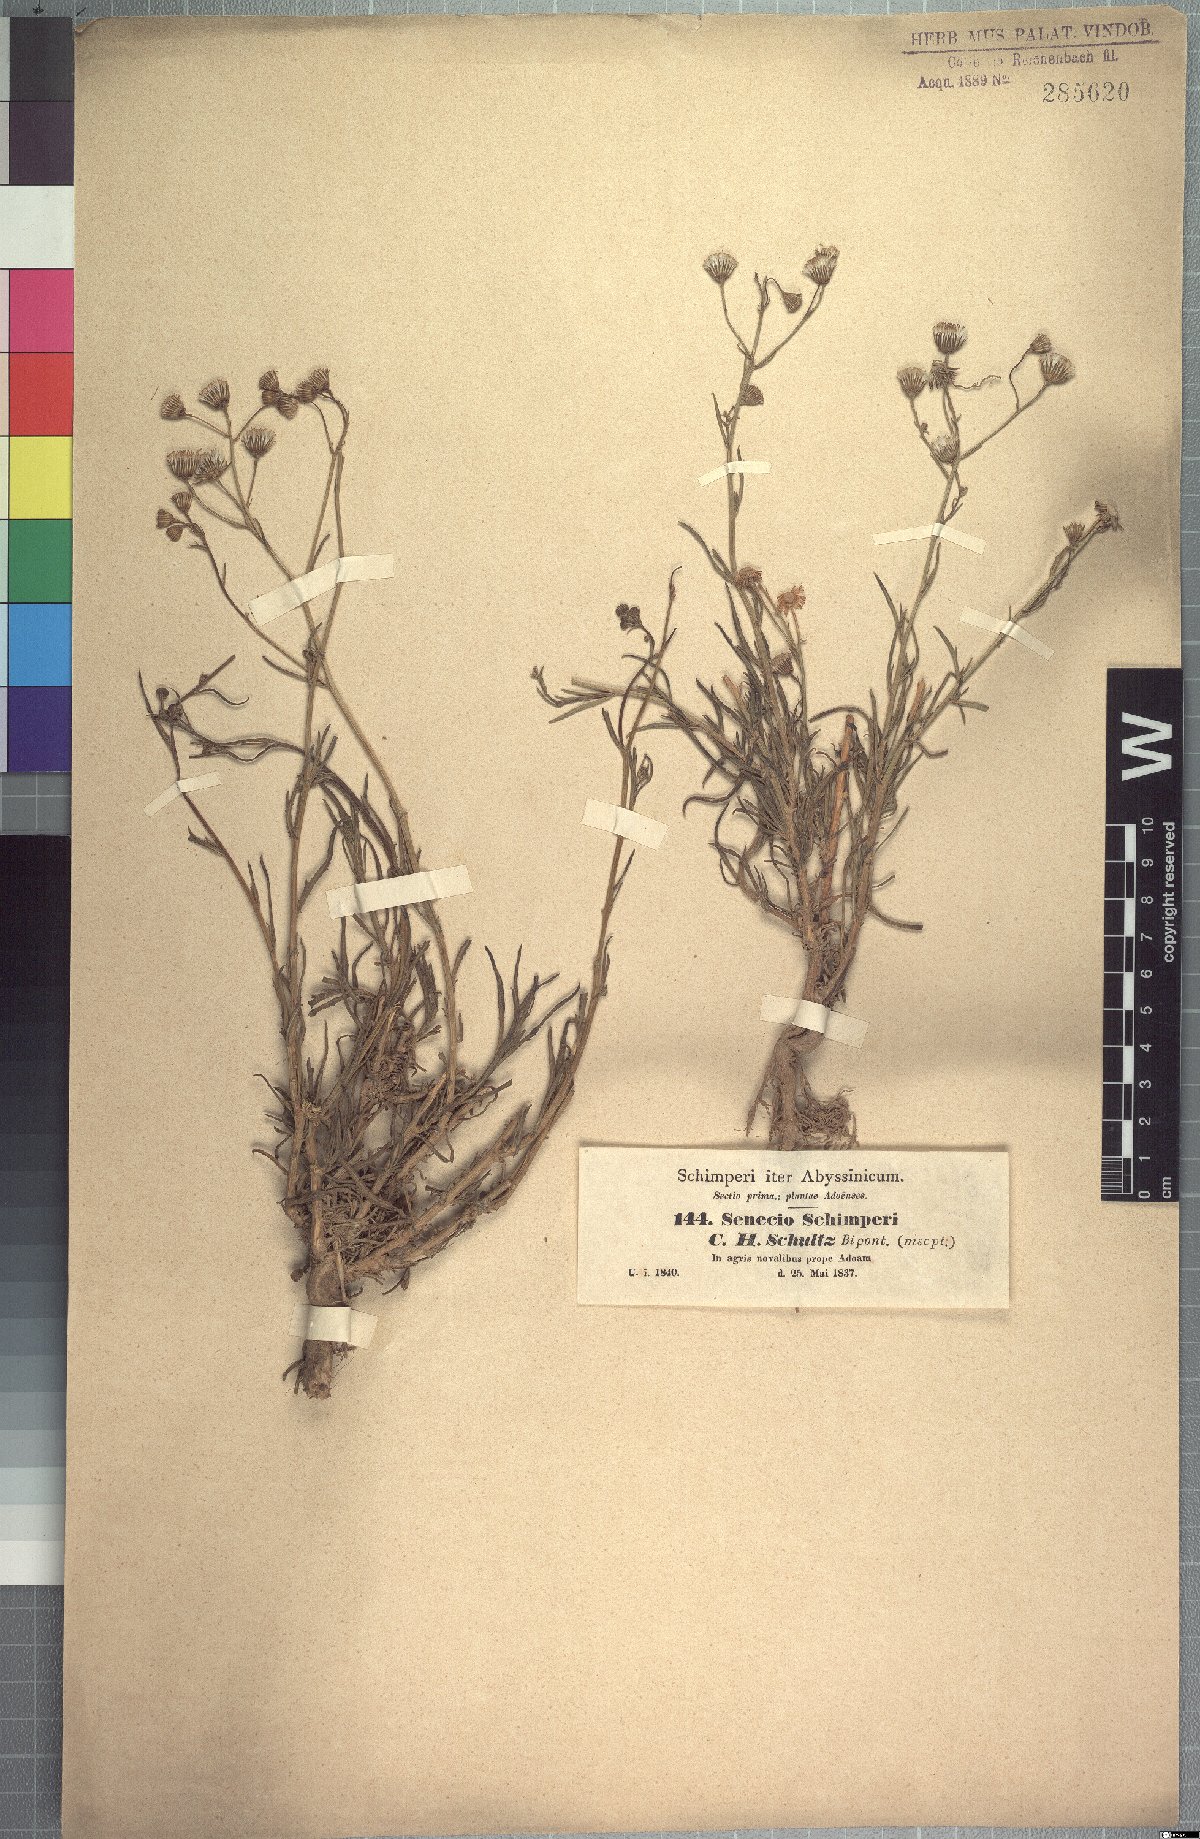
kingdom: Plantae
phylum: Tracheophyta
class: Magnoliopsida
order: Asterales
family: Asteraceae
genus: Senecio
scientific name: Senecio schimperi
